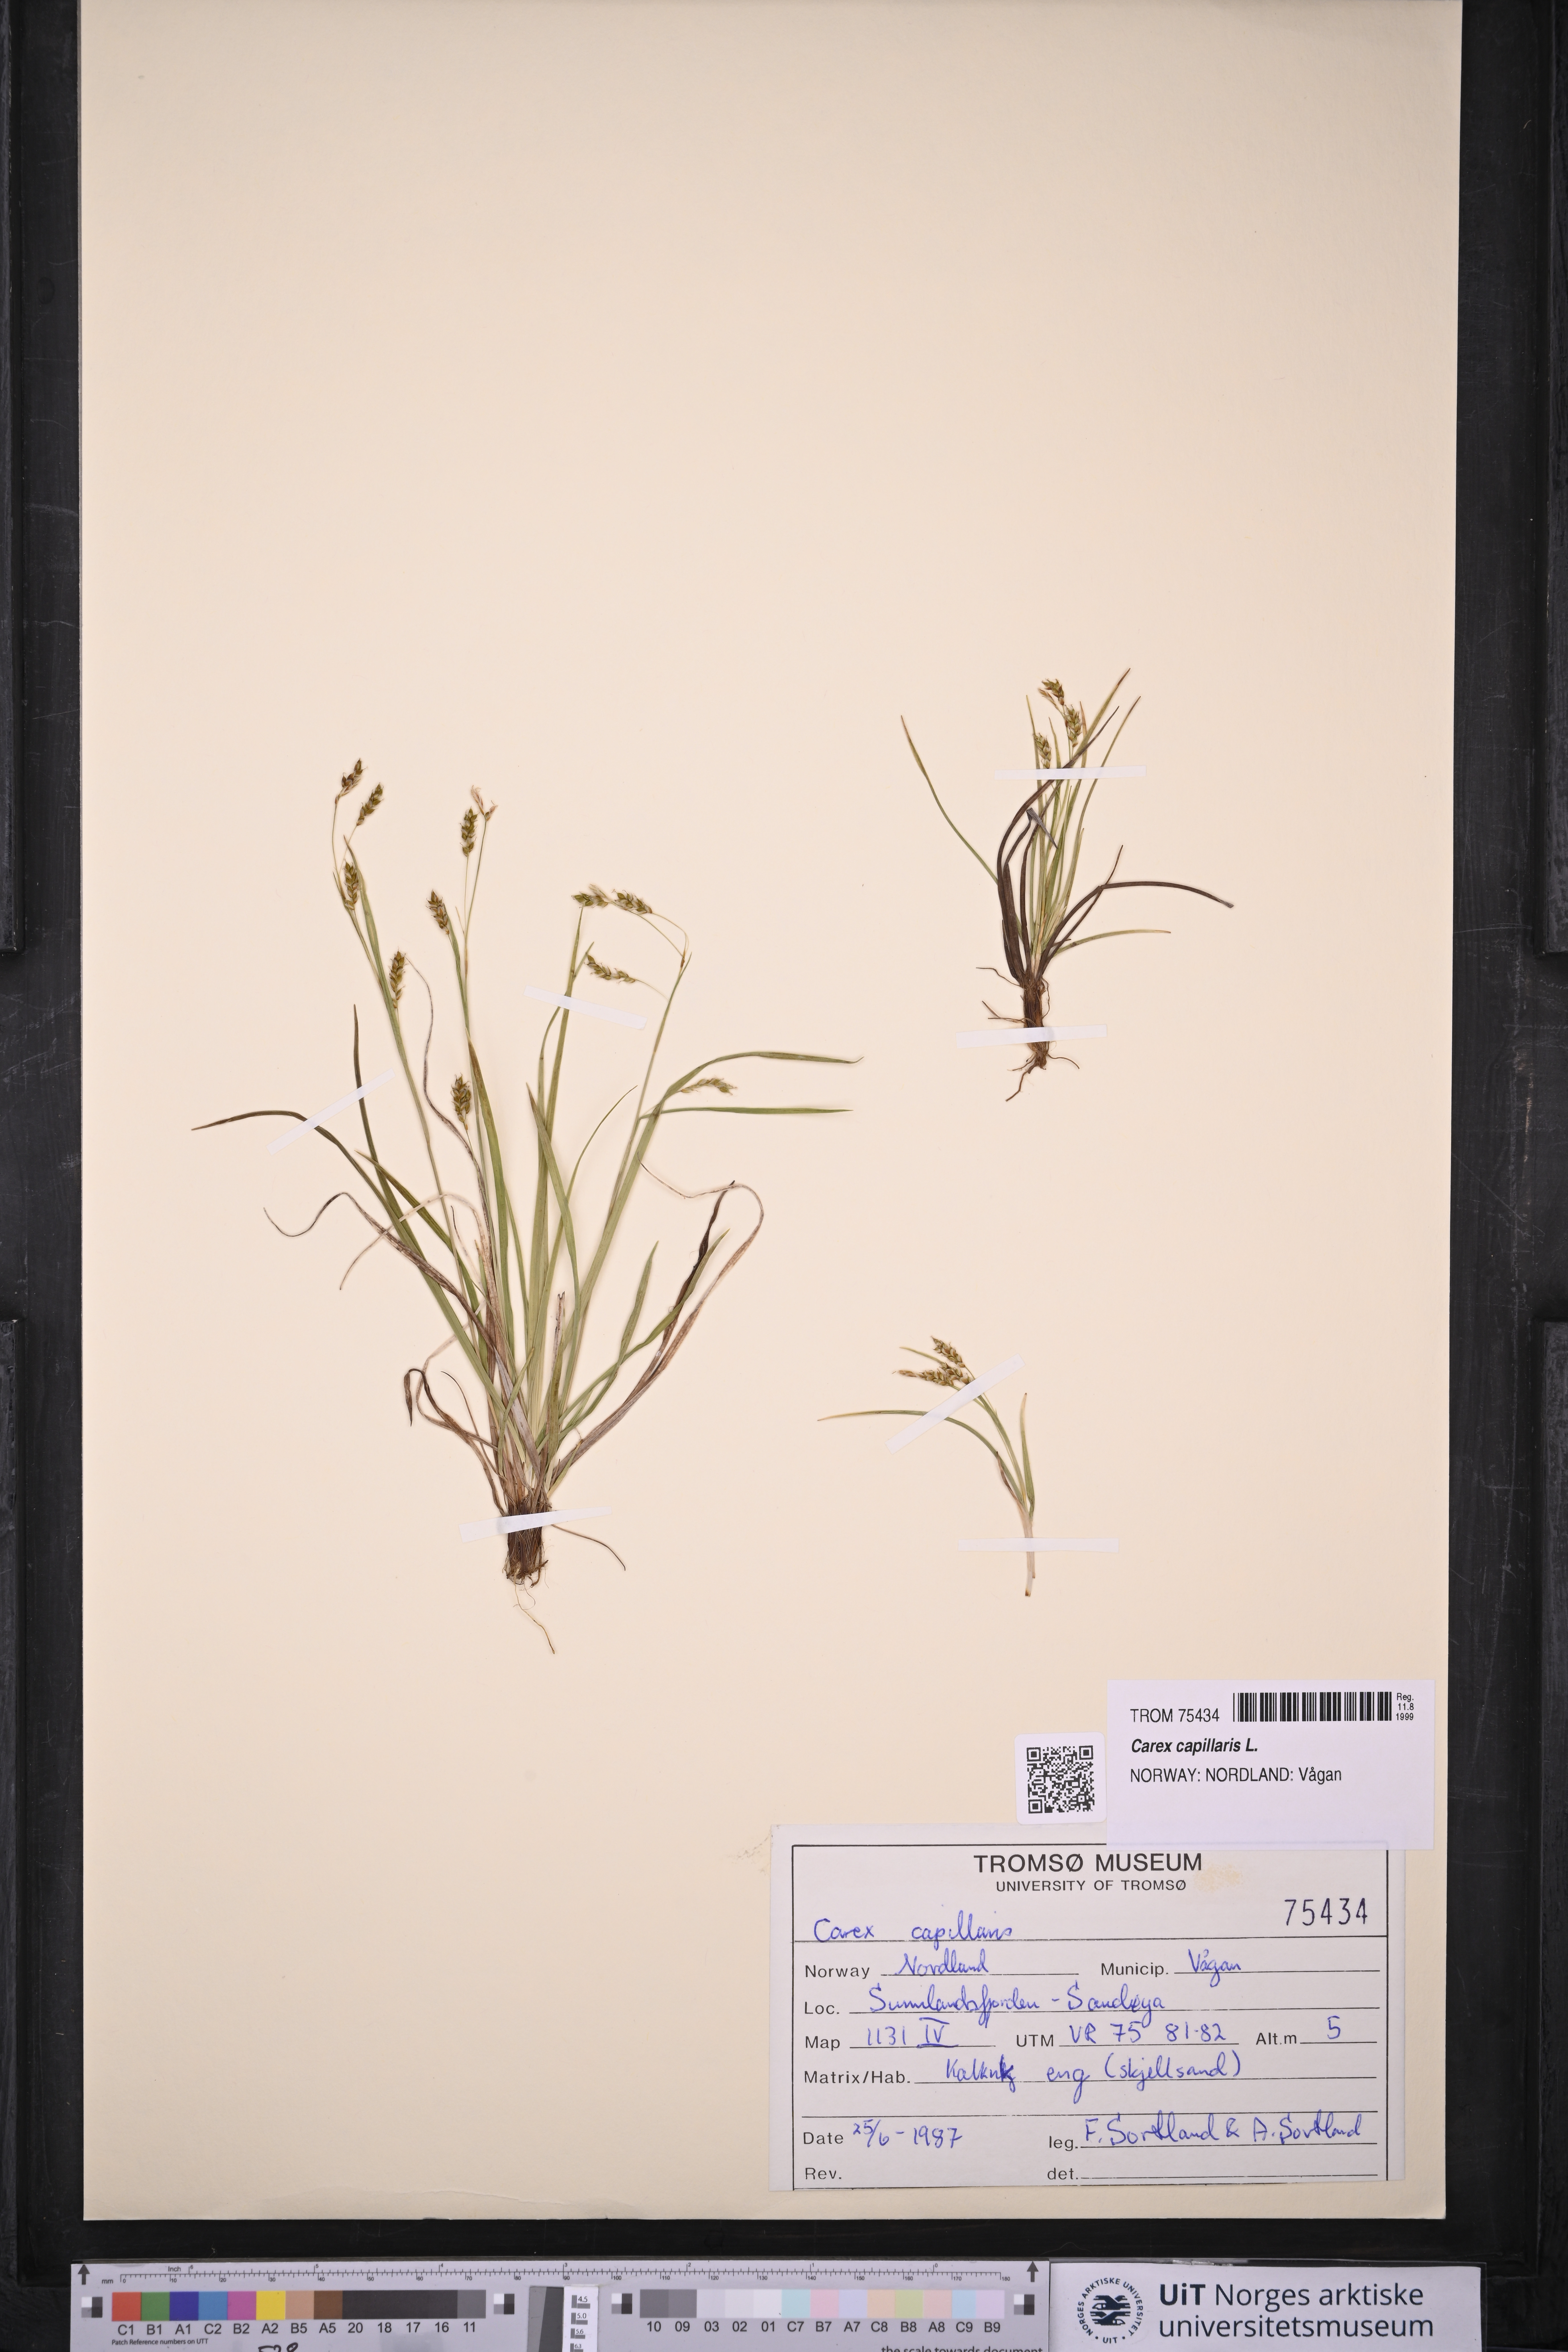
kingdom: Plantae
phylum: Tracheophyta
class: Liliopsida
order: Poales
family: Cyperaceae
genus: Carex
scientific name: Carex capillaris
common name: Hair sedge
